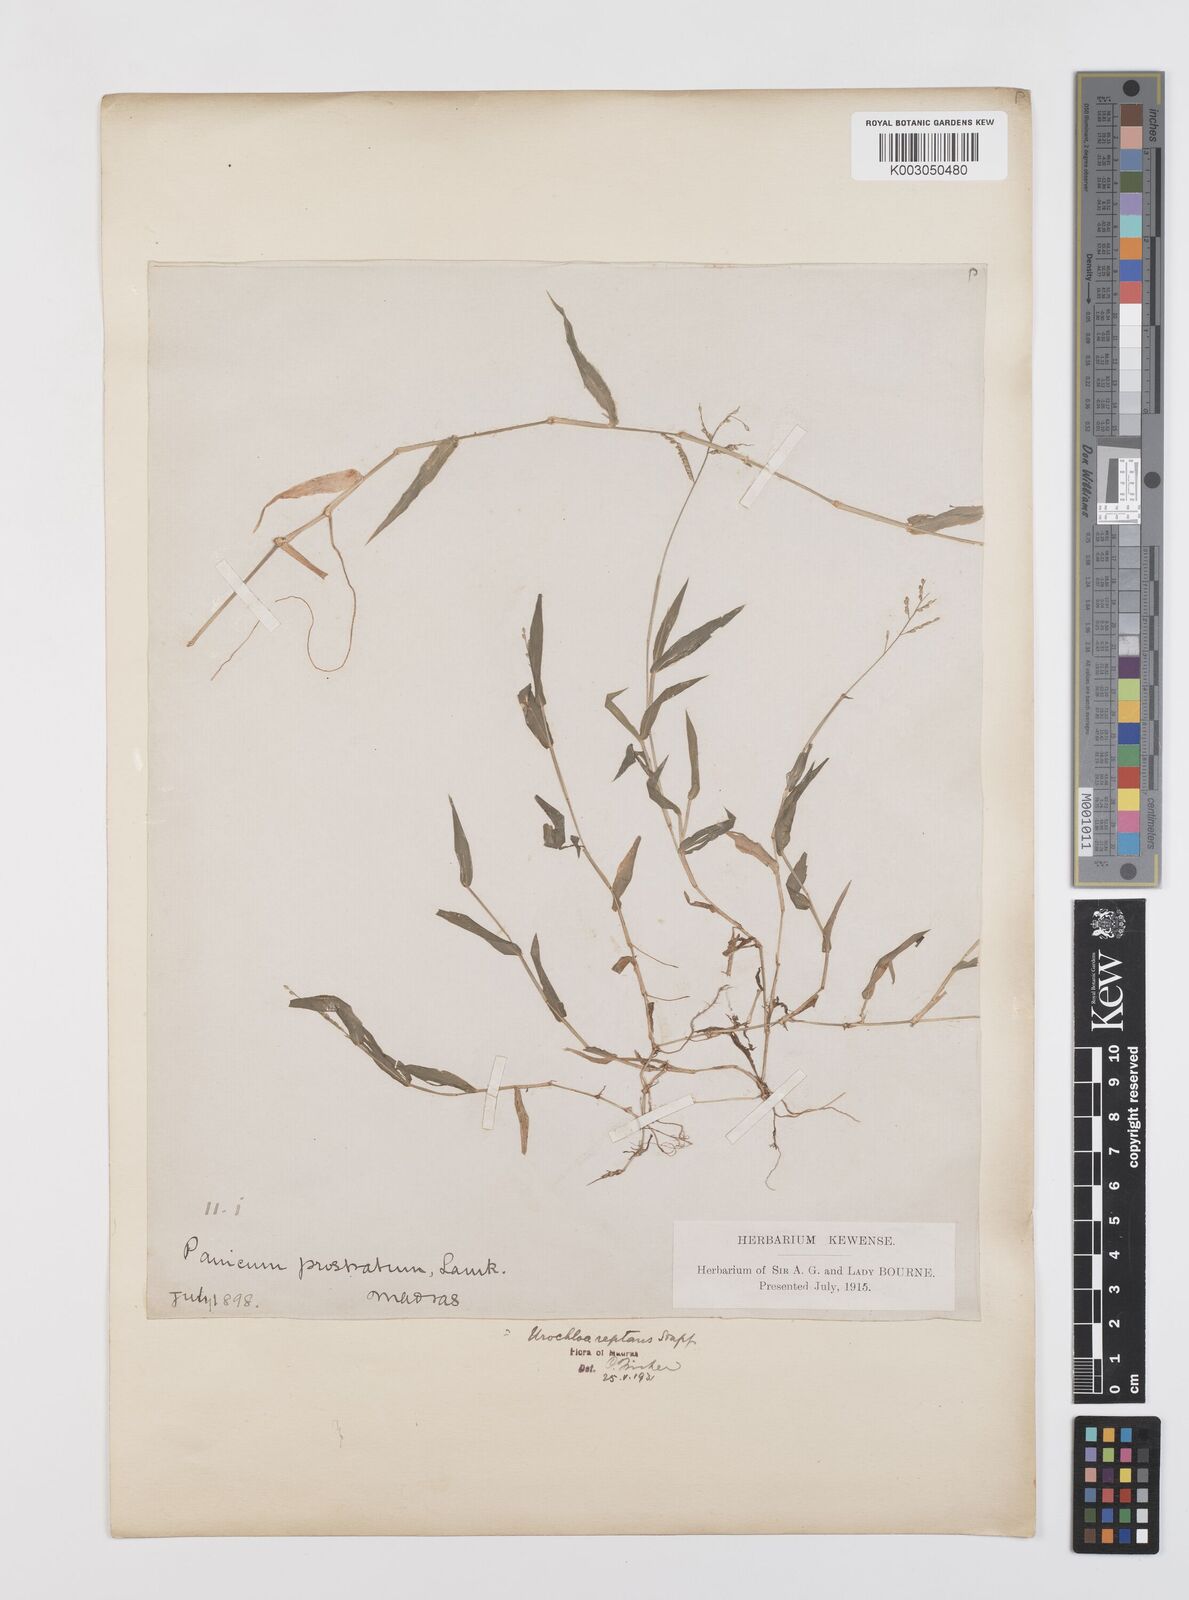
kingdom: Plantae
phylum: Tracheophyta
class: Liliopsida
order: Poales
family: Poaceae
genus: Urochloa
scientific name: Urochloa reptans
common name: Sprawling signalgrass
